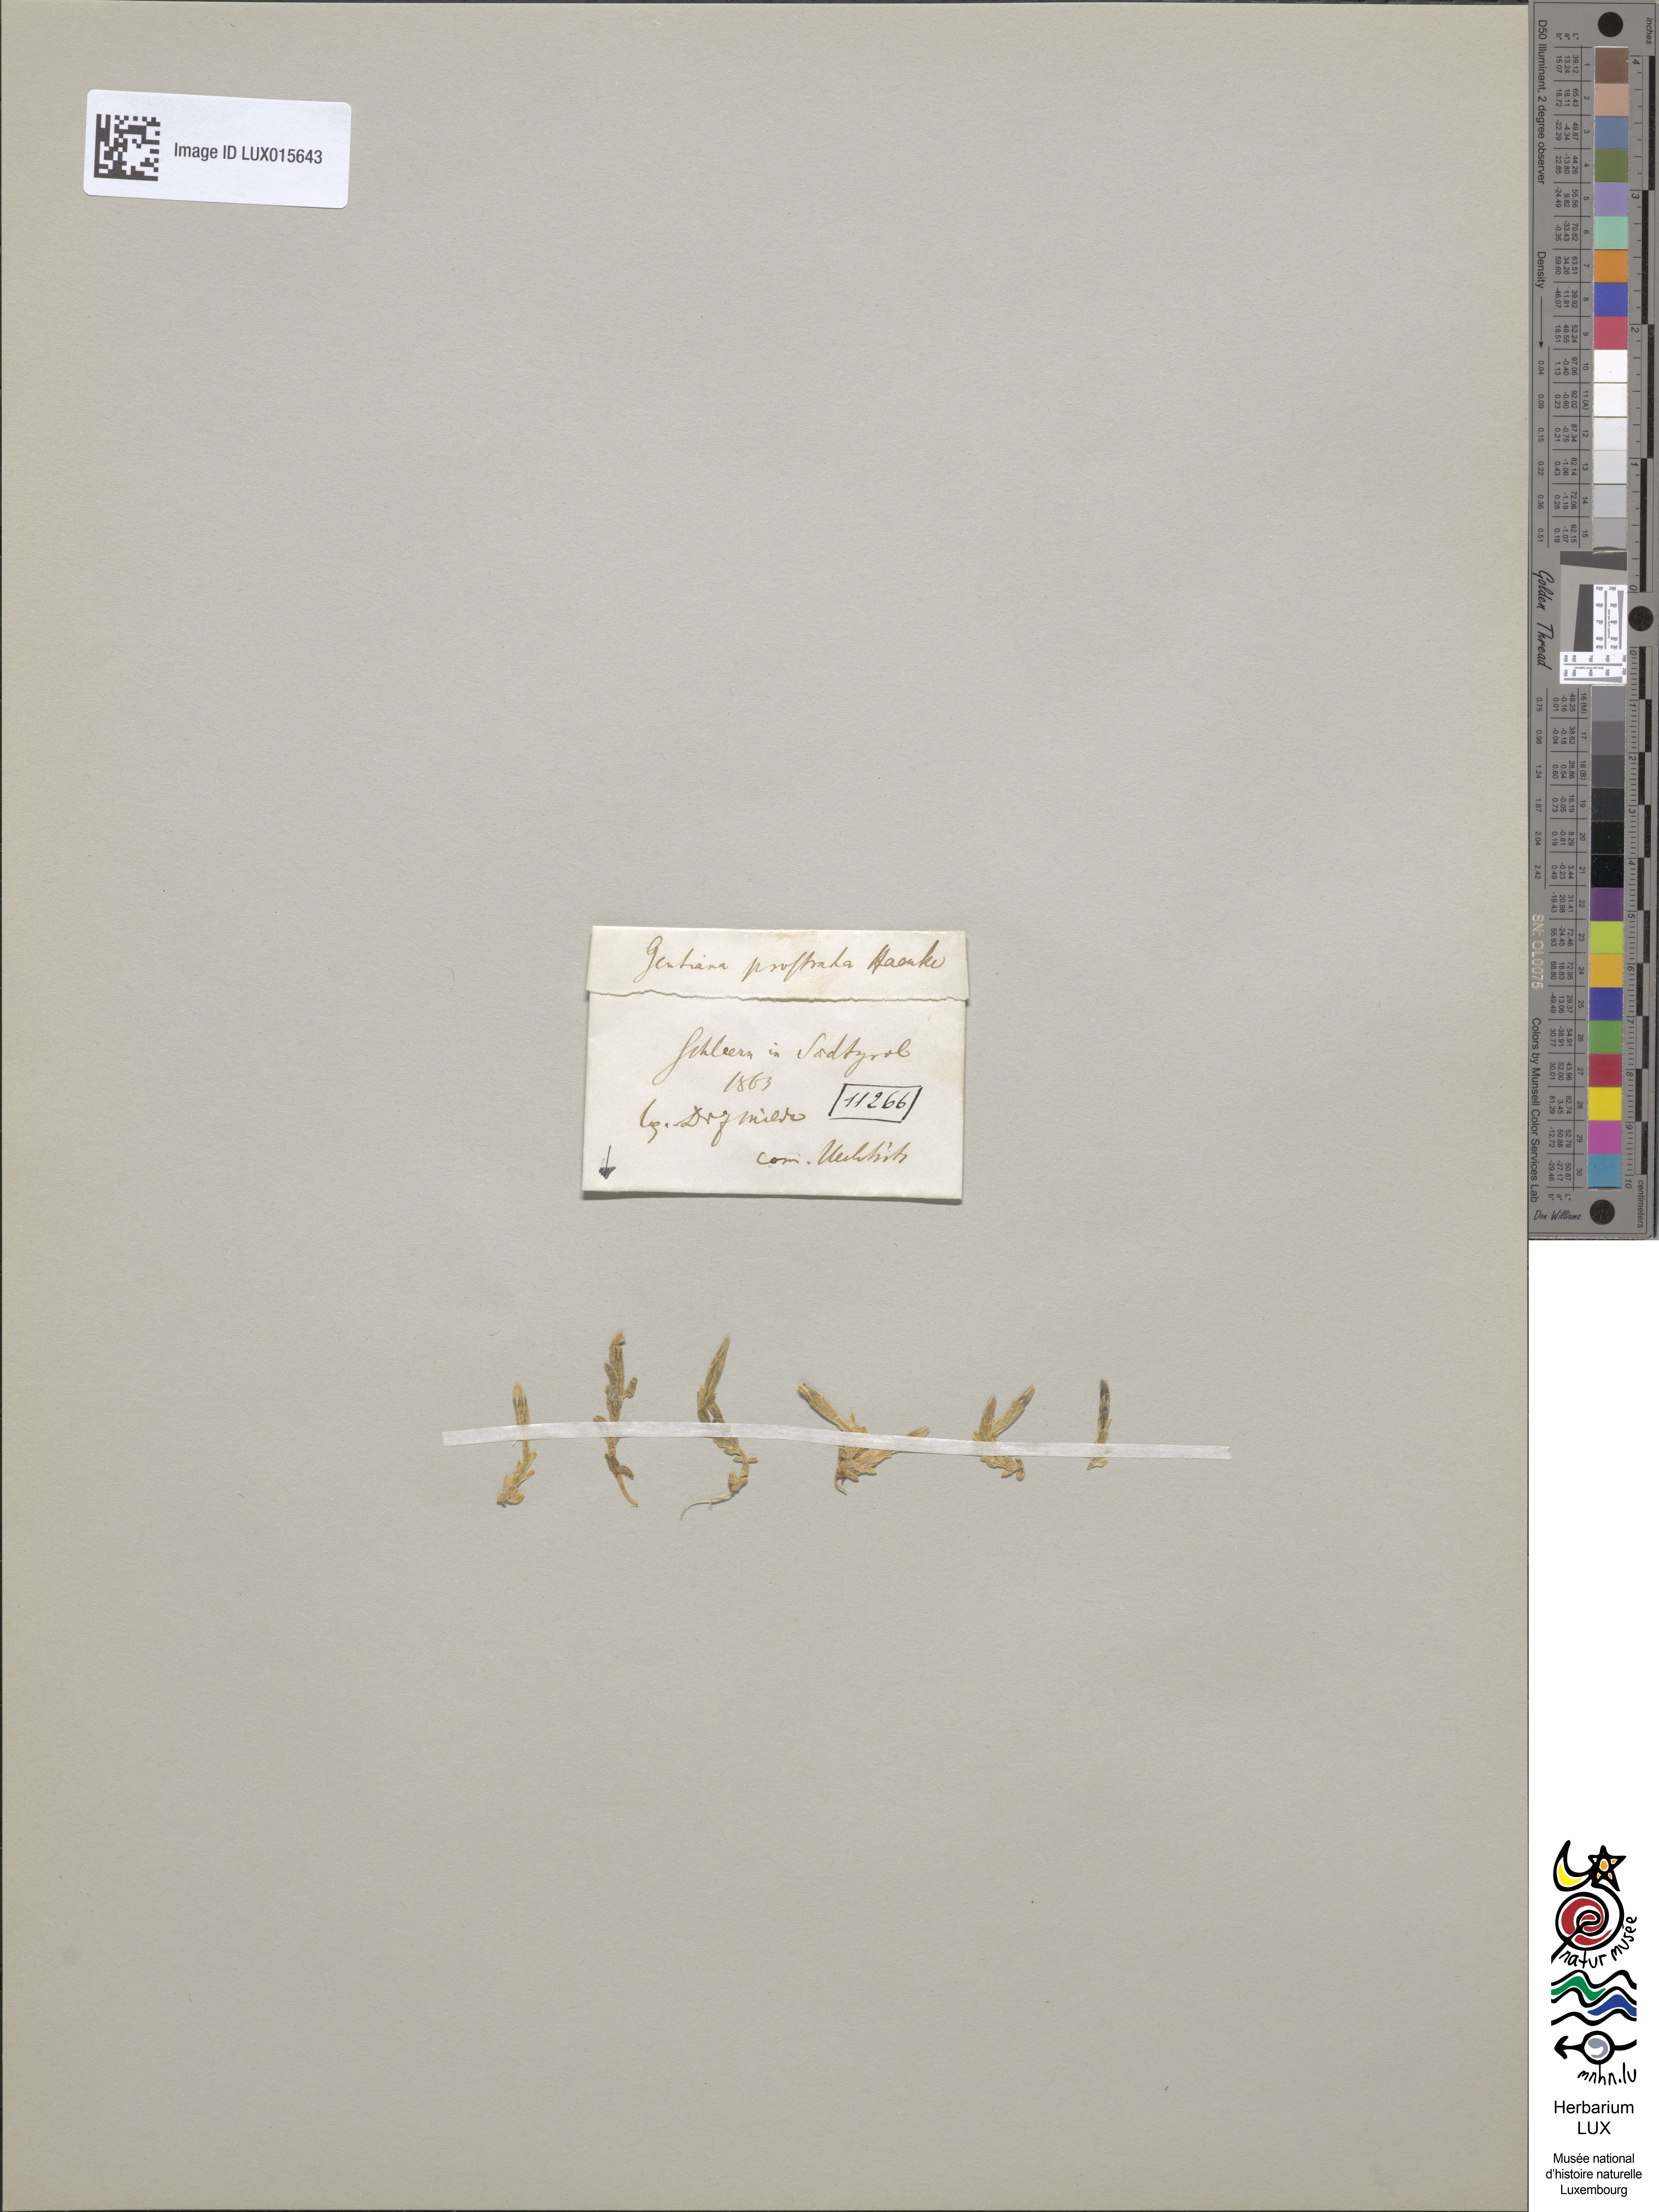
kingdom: Plantae
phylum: Tracheophyta
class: Magnoliopsida
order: Gentianales
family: Gentianaceae
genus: Gentiana
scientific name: Gentiana prostrata
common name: Moss gentian
